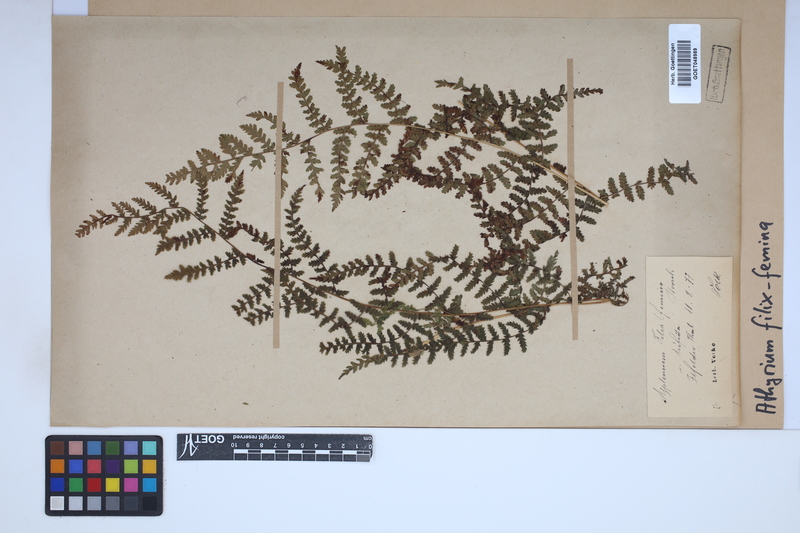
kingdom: Plantae
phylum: Tracheophyta
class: Polypodiopsida
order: Polypodiales
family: Athyriaceae
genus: Athyrium
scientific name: Athyrium filix-femina
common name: Lady fern
